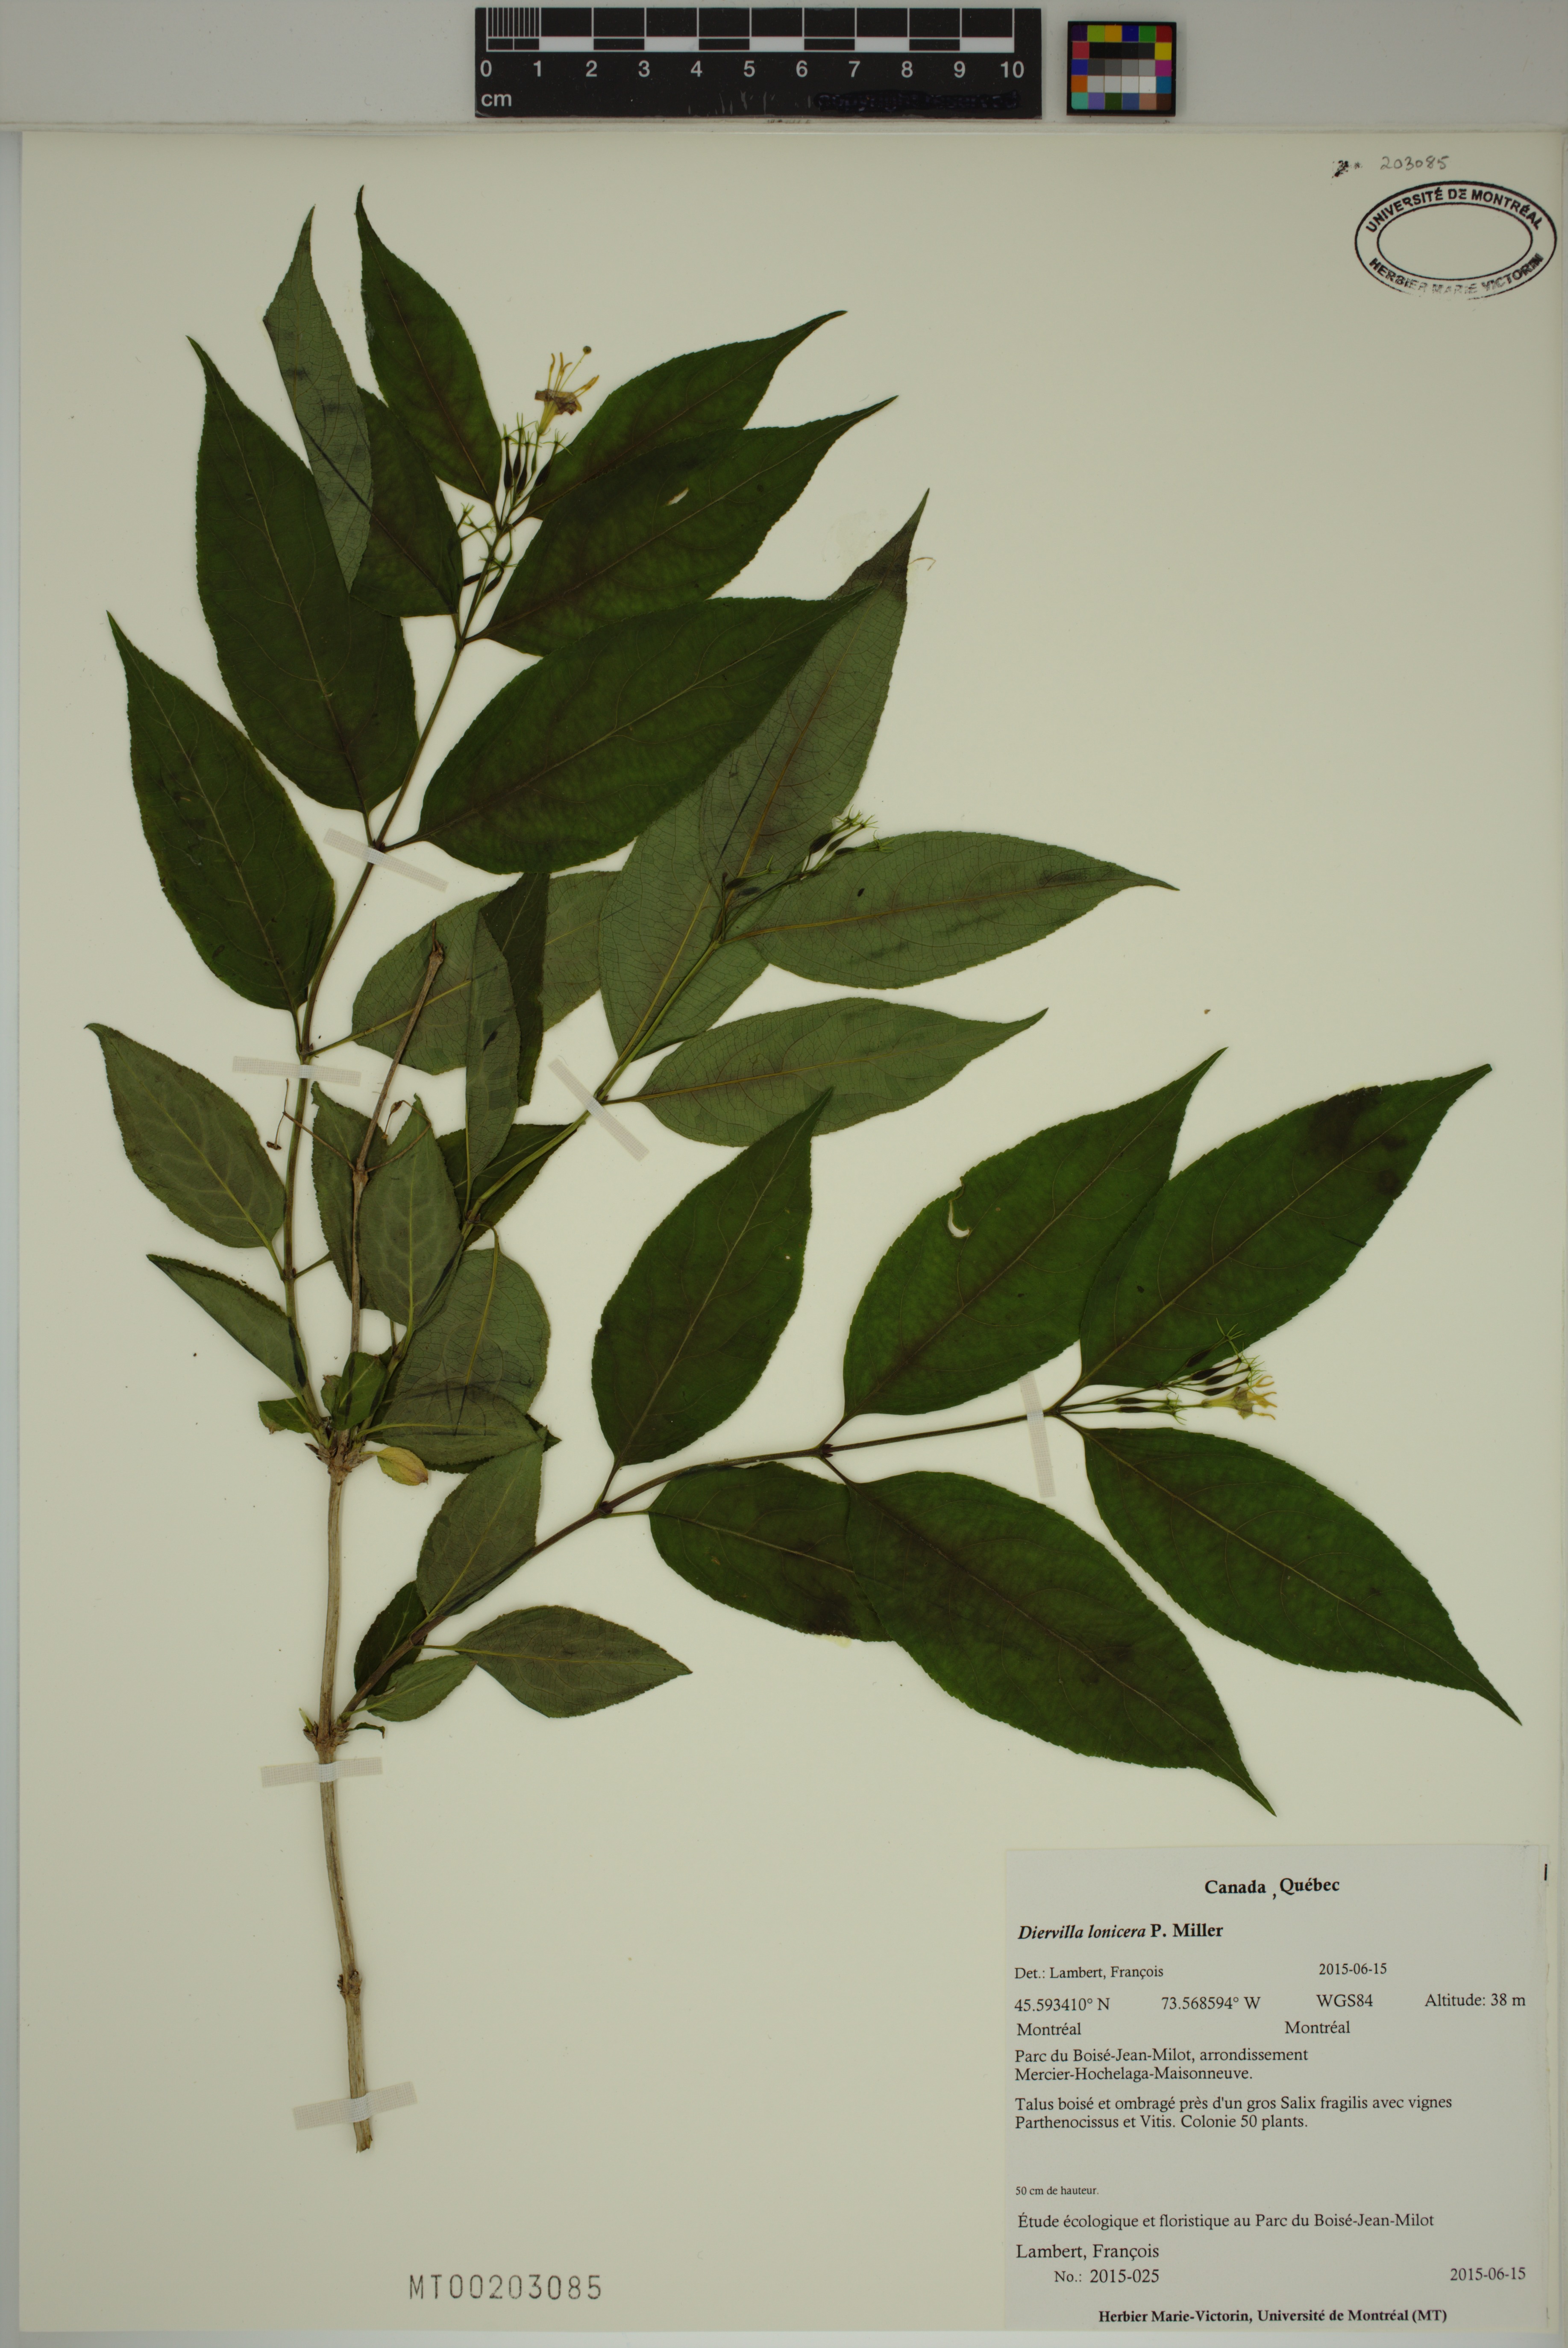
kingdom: Plantae
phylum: Tracheophyta
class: Magnoliopsida
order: Dipsacales
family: Caprifoliaceae
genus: Diervilla
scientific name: Diervilla lonicera
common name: Bush-honeysuckle
